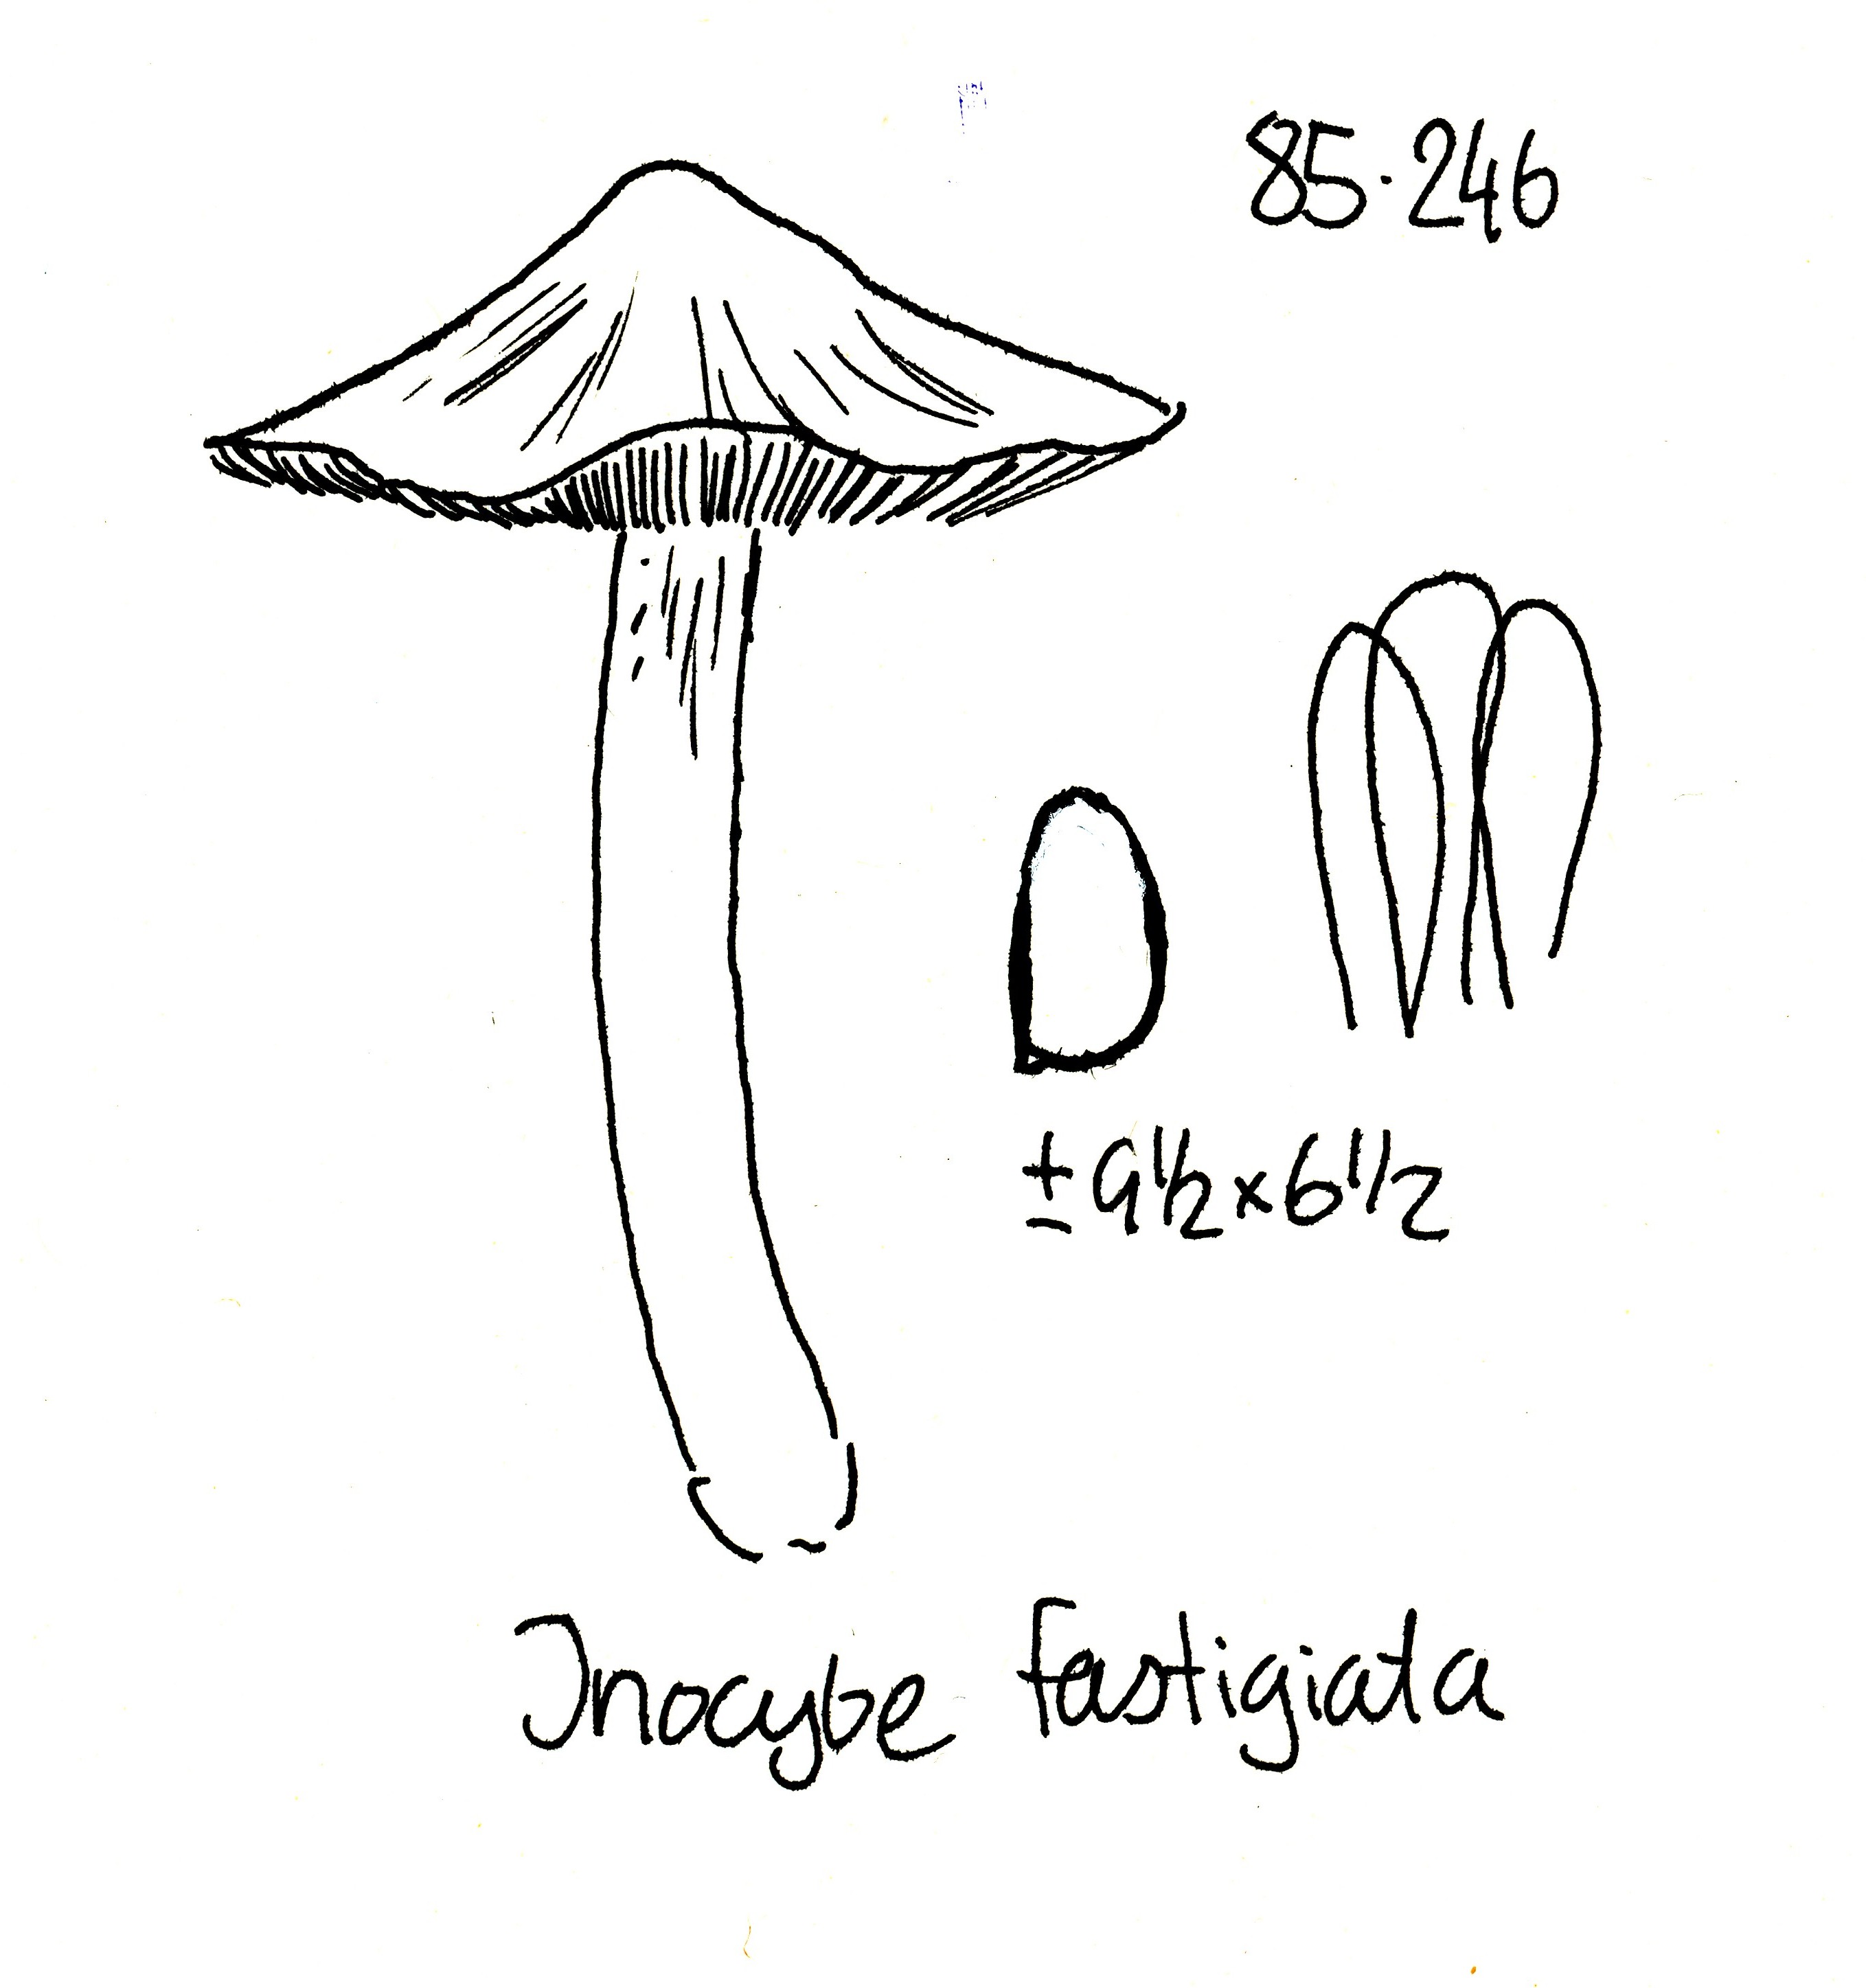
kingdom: Fungi
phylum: Basidiomycota
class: Agaricomycetes
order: Agaricales
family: Inocybaceae
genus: Pseudosperma
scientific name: Pseudosperma rimosum
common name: gulbladet trævlhat
